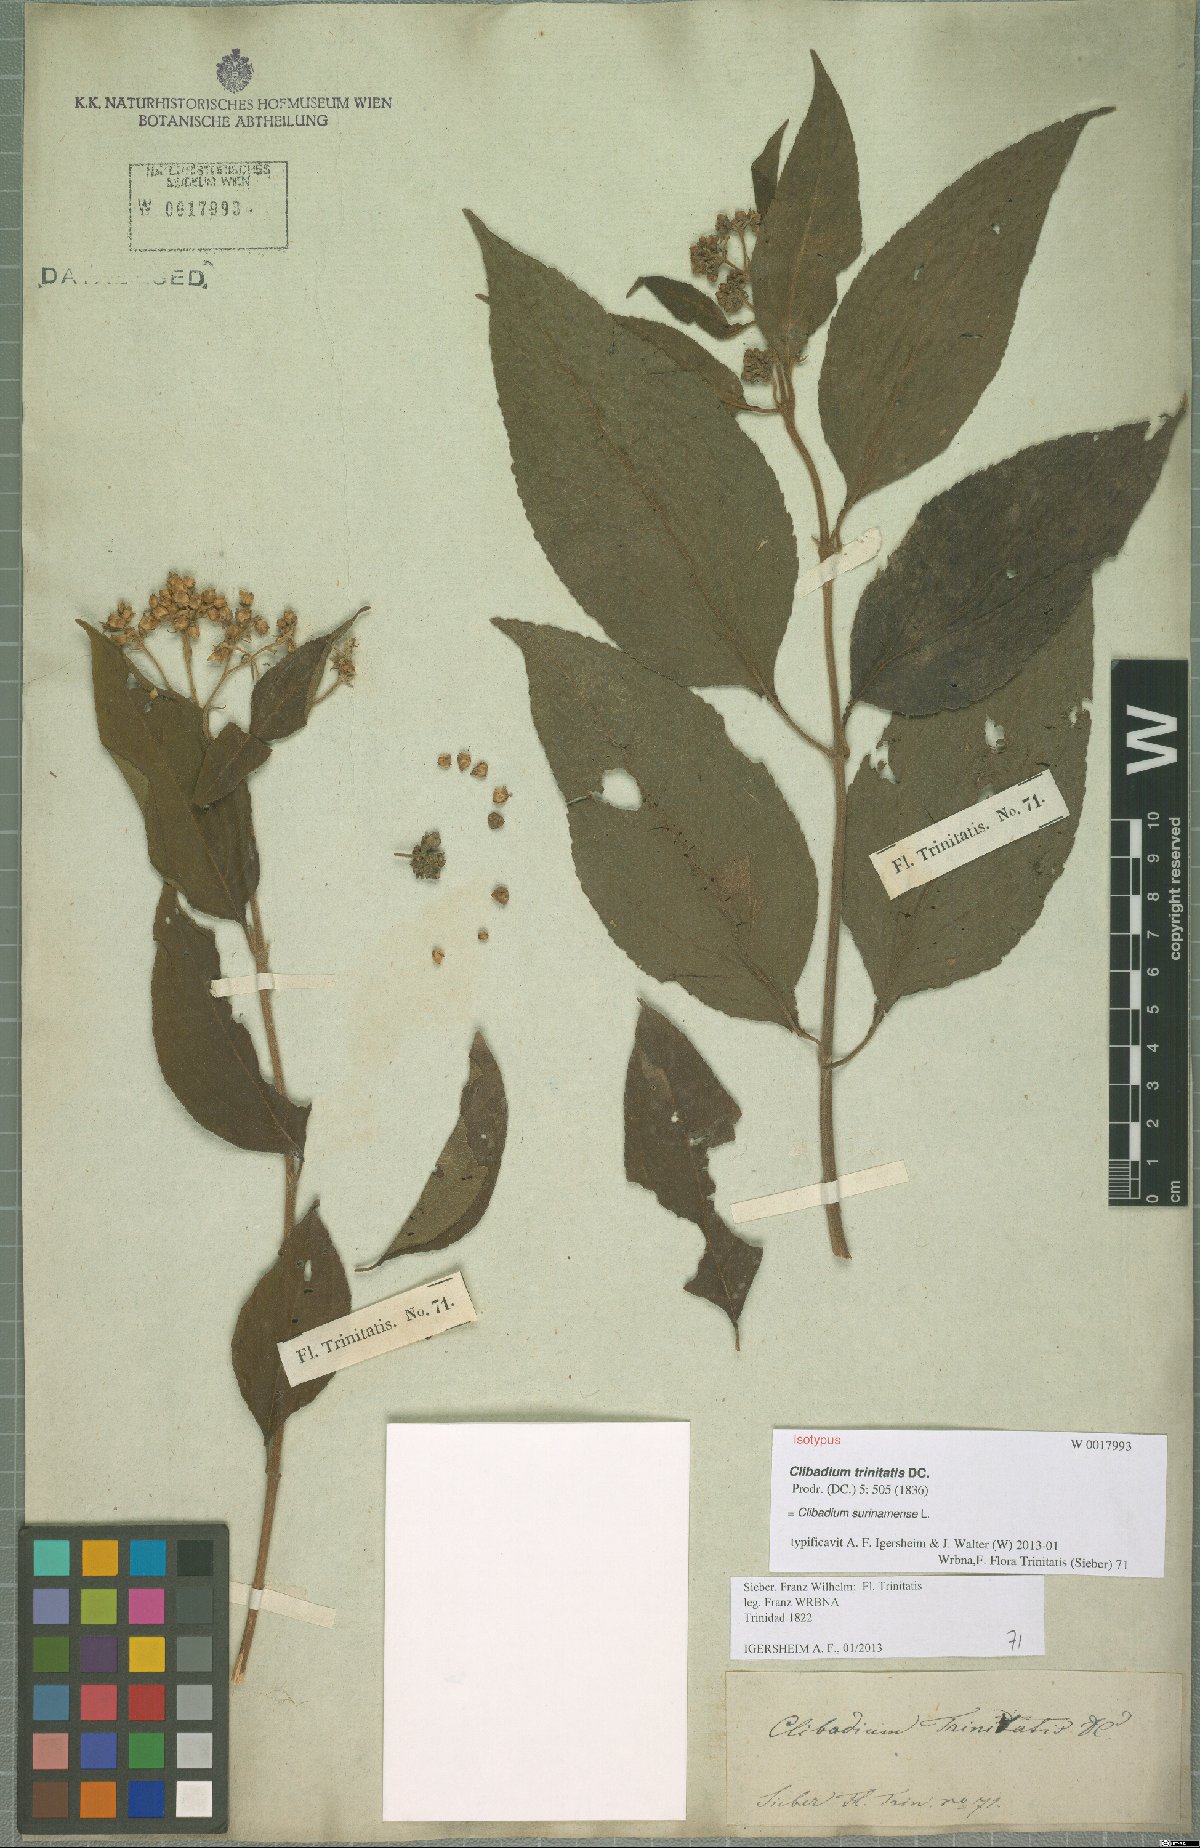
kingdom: Plantae
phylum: Tracheophyta
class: Magnoliopsida
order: Asterales
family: Asteraceae
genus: Clibadium
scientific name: Clibadium surinamense
